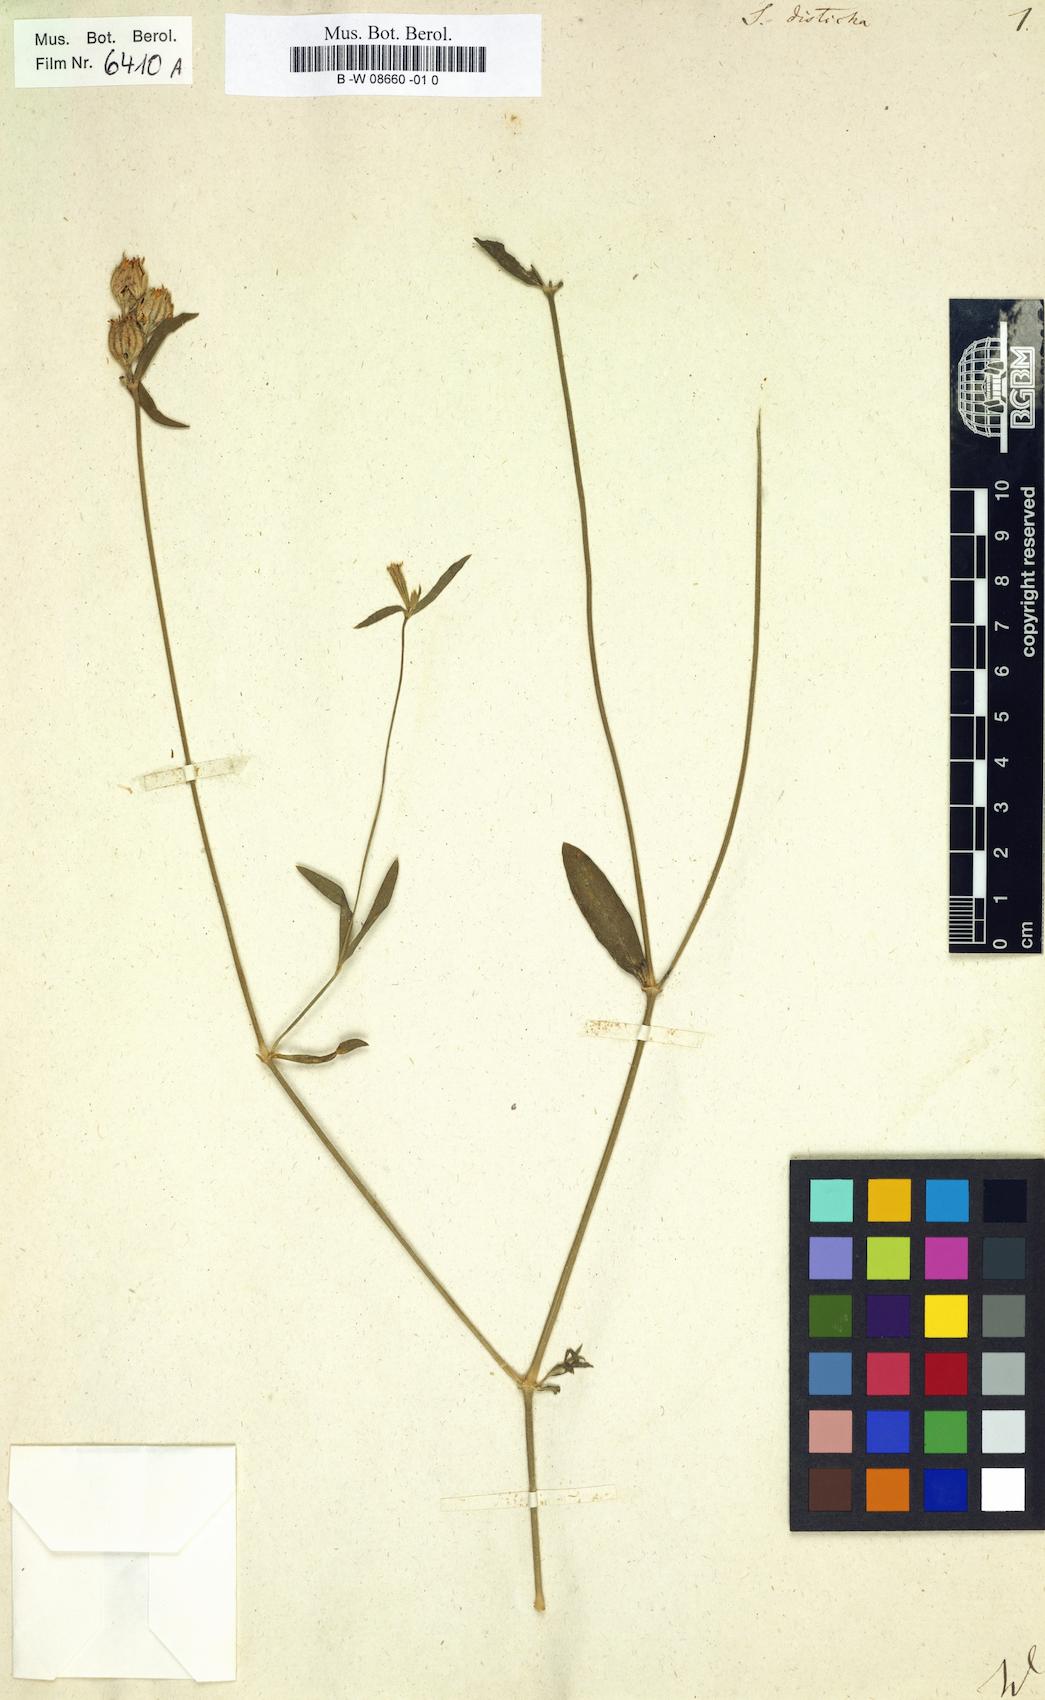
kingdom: Plantae
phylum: Tracheophyta
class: Magnoliopsida
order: Caryophyllales
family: Caryophyllaceae
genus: Silene
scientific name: Silene disticha
